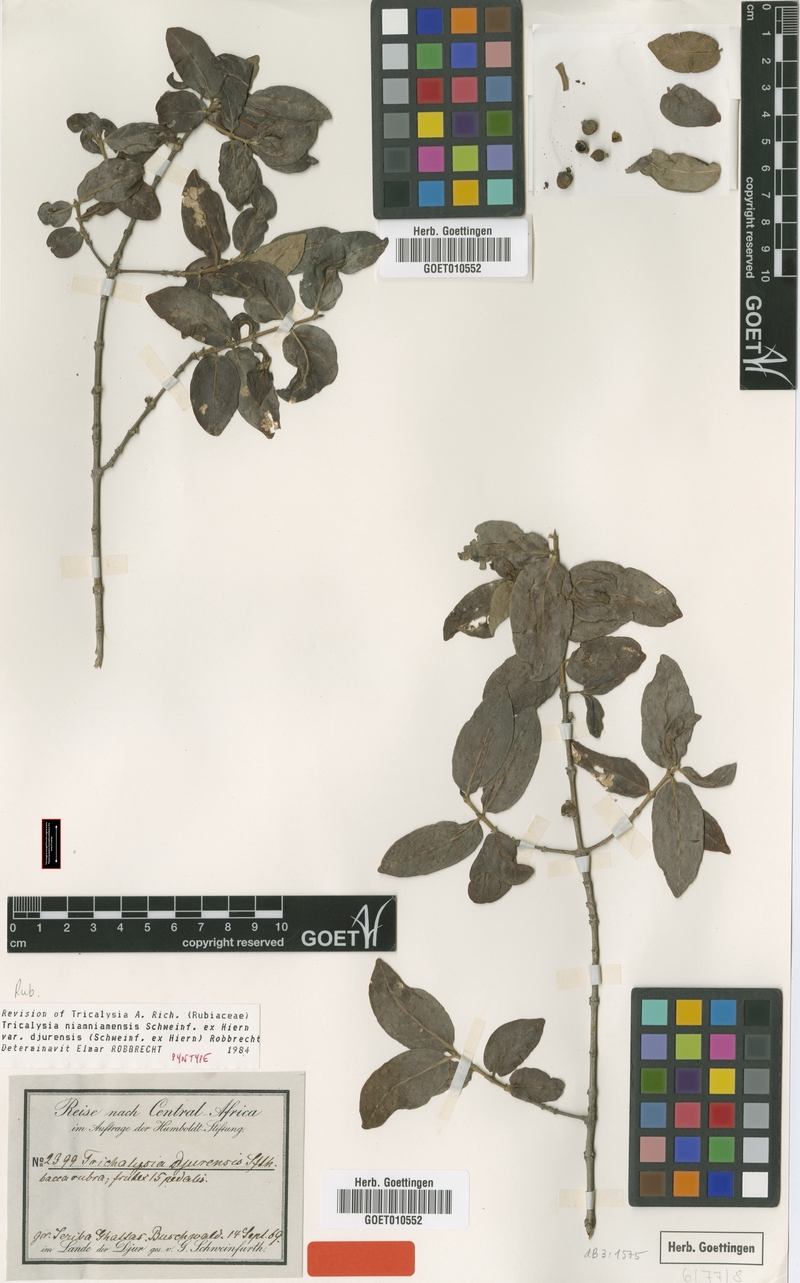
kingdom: Plantae
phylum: Tracheophyta
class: Magnoliopsida
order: Gentianales
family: Rubiaceae
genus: Tricalysia
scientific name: Tricalysia niamniamensis
